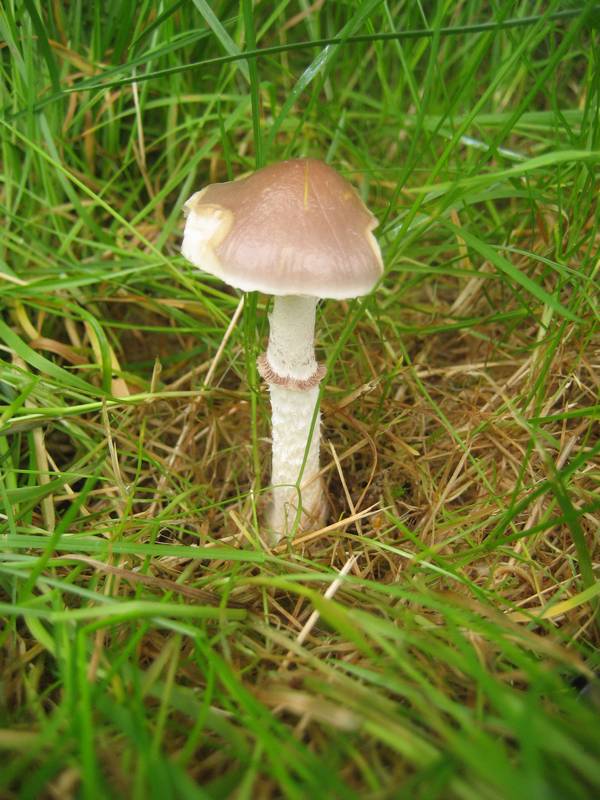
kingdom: Fungi
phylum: Basidiomycota
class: Agaricomycetes
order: Agaricales
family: Strophariaceae
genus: Stropharia
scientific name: Stropharia inuncta
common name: lillabrun bredblad
